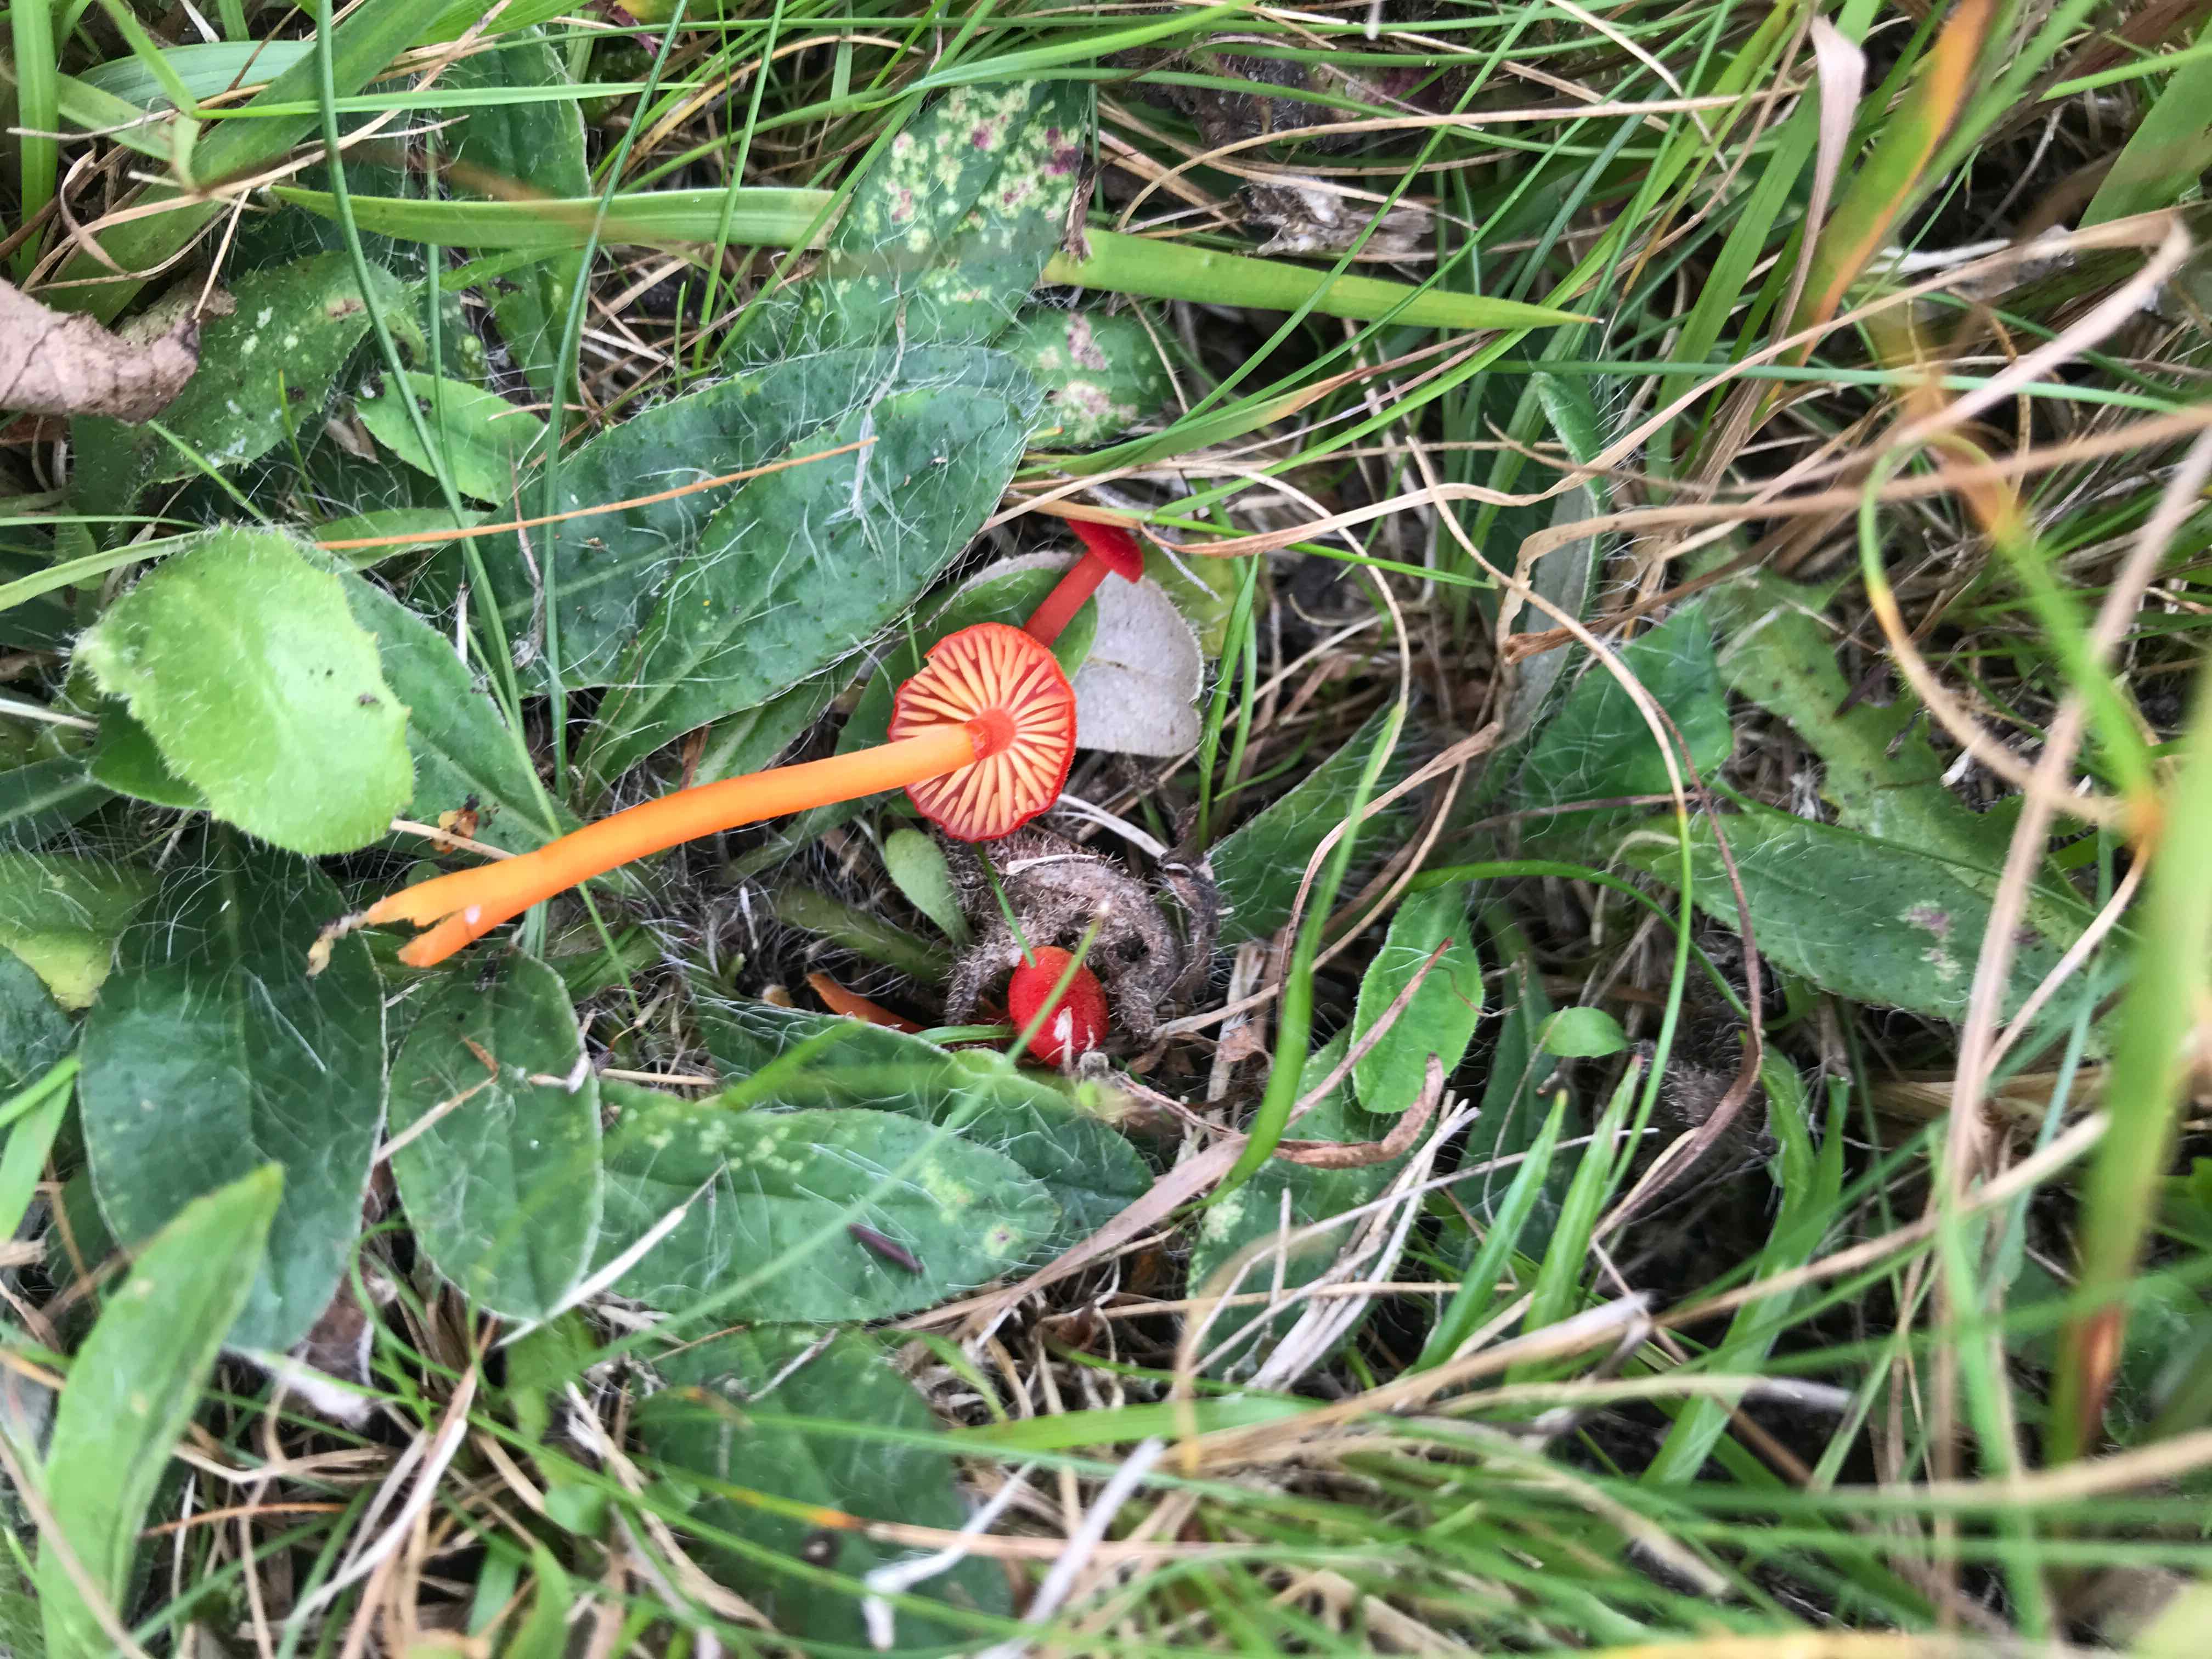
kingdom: Fungi
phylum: Basidiomycota
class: Agaricomycetes
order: Agaricales
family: Hygrophoraceae
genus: Hygrocybe
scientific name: Hygrocybe helobia
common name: hvidløgs-vokshat
